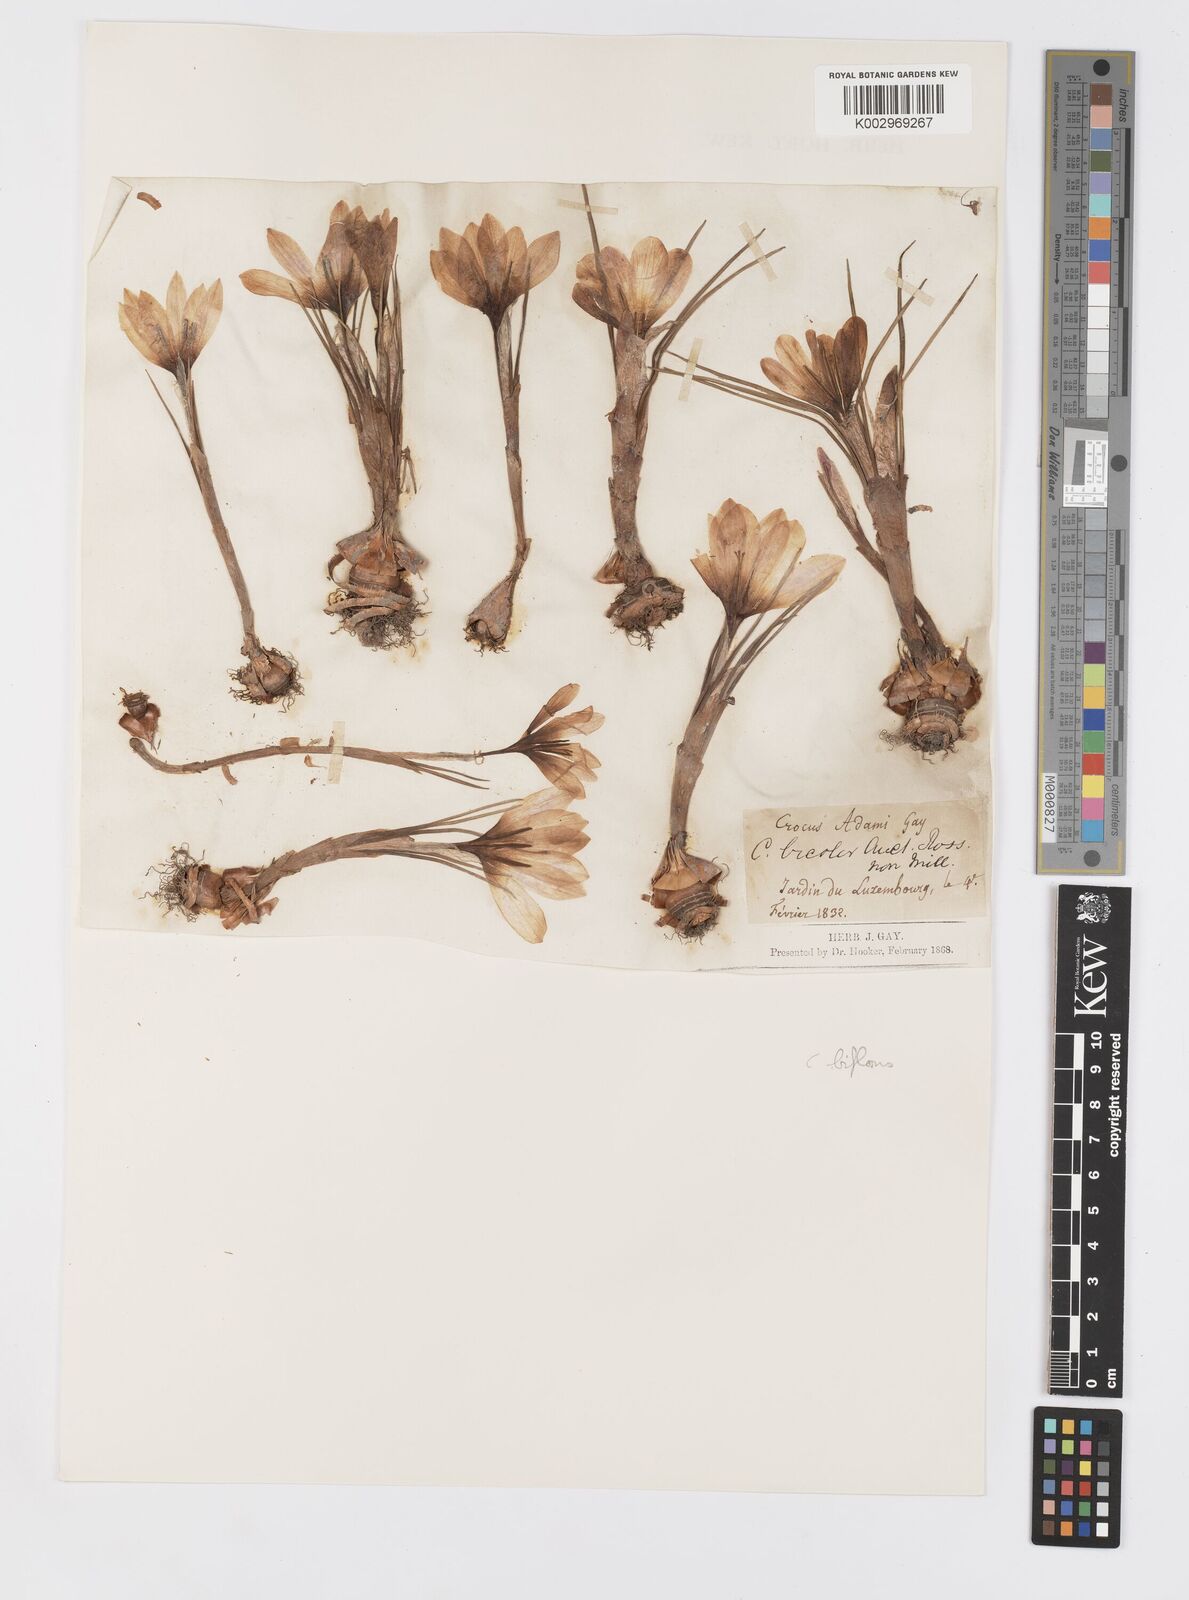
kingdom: Plantae
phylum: Tracheophyta
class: Liliopsida
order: Asparagales
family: Iridaceae
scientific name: Iridaceae
